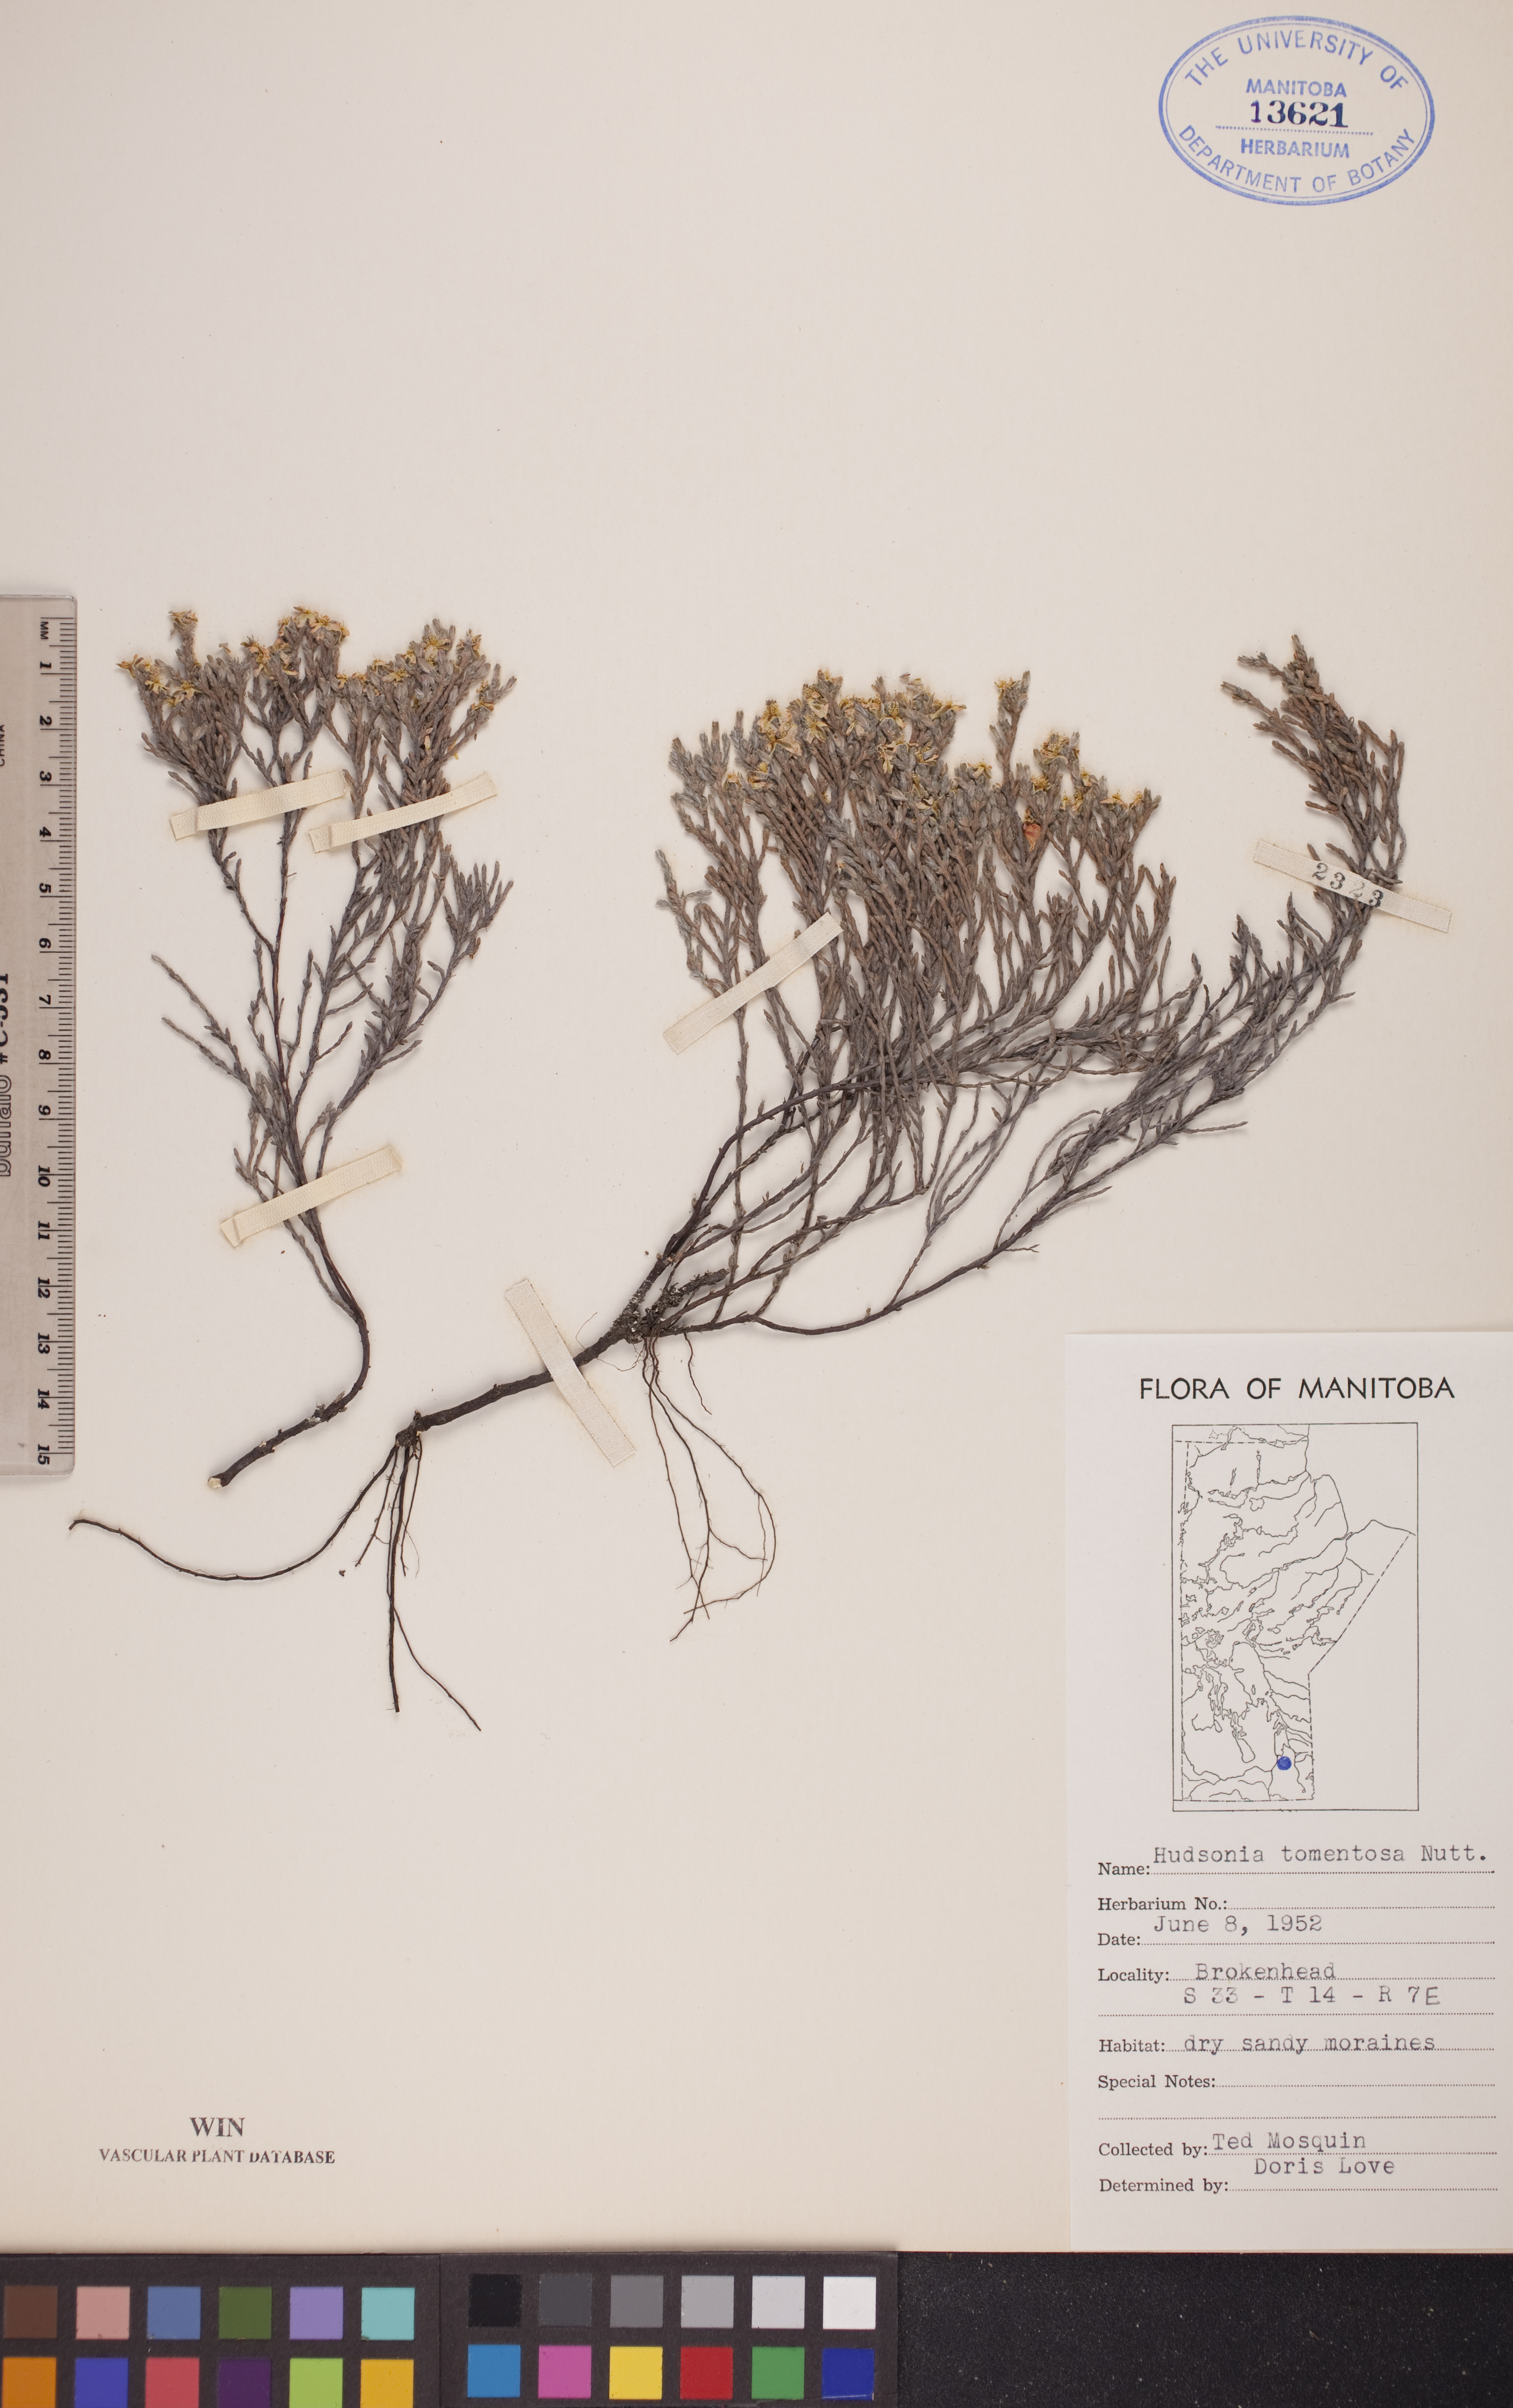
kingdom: Plantae
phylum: Tracheophyta
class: Magnoliopsida
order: Malvales
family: Cistaceae
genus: Hudsonia
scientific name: Hudsonia tomentosa
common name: Beach-heath
